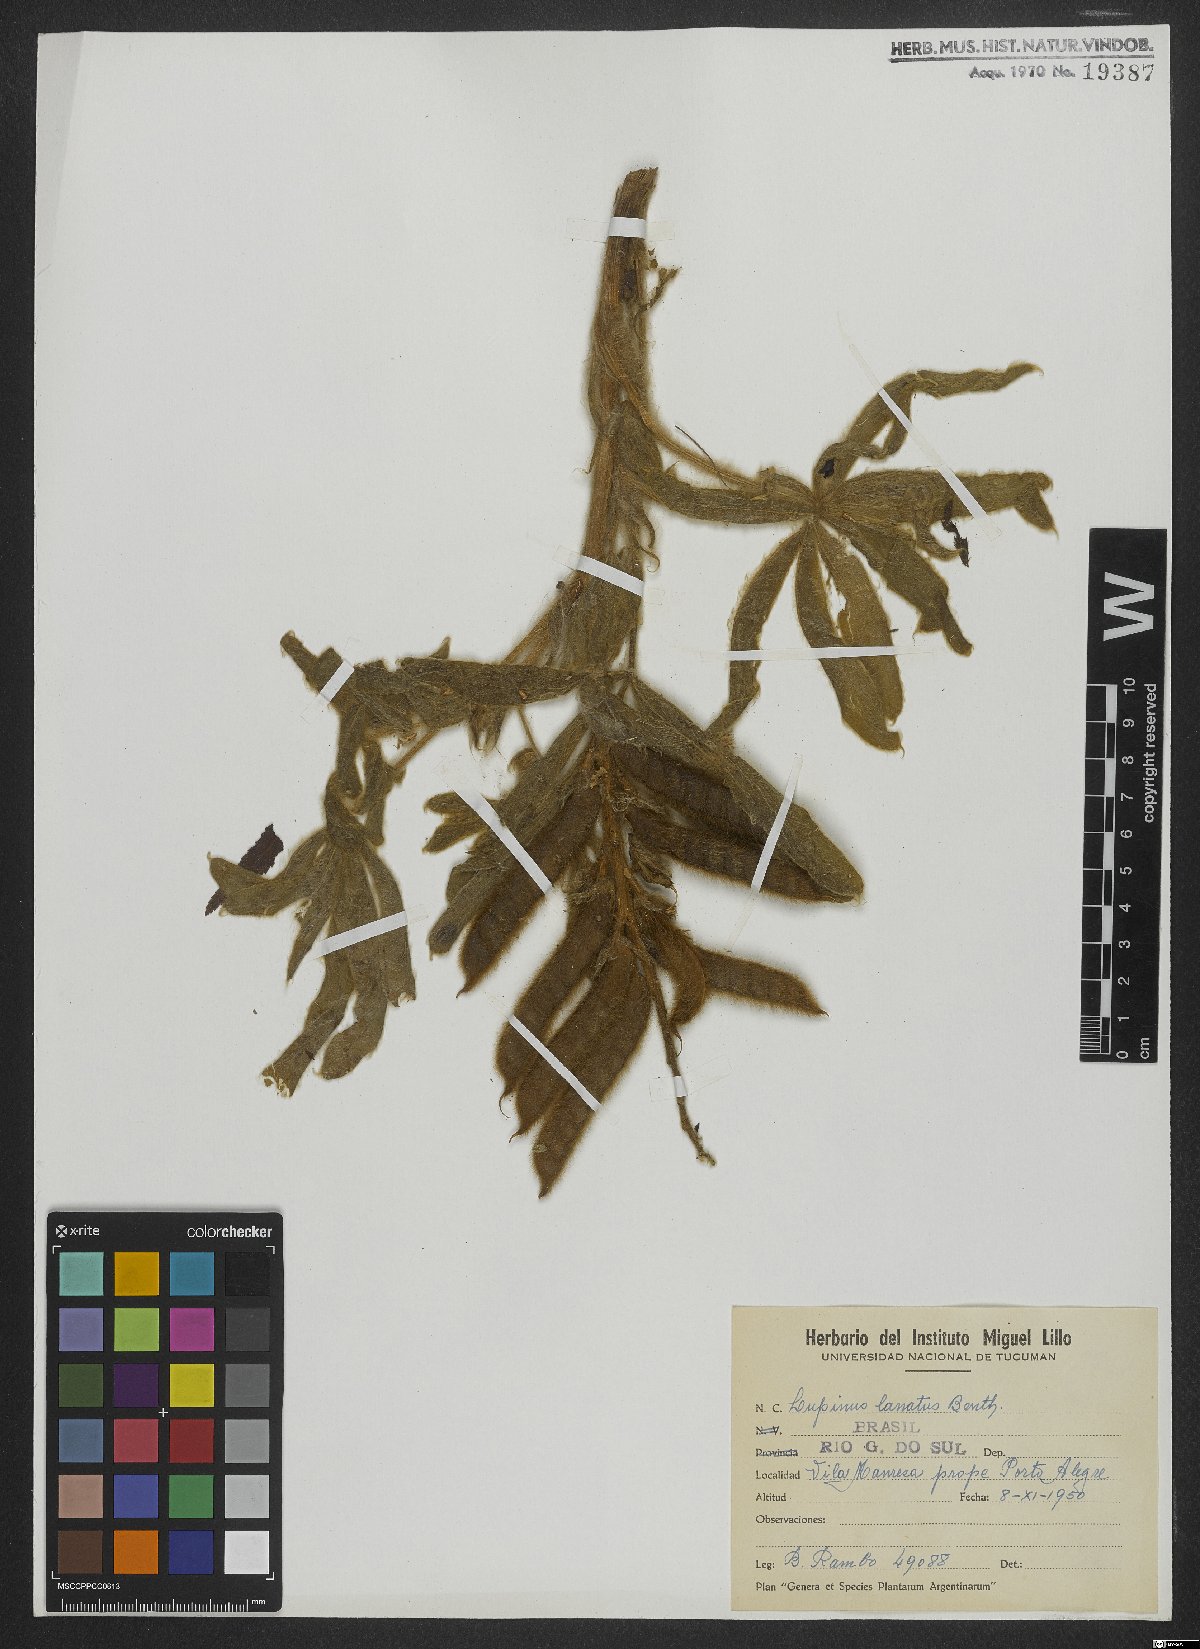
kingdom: Plantae
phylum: Tracheophyta
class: Magnoliopsida
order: Fabales
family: Fabaceae
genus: Lupinus
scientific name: Lupinus lanatus
